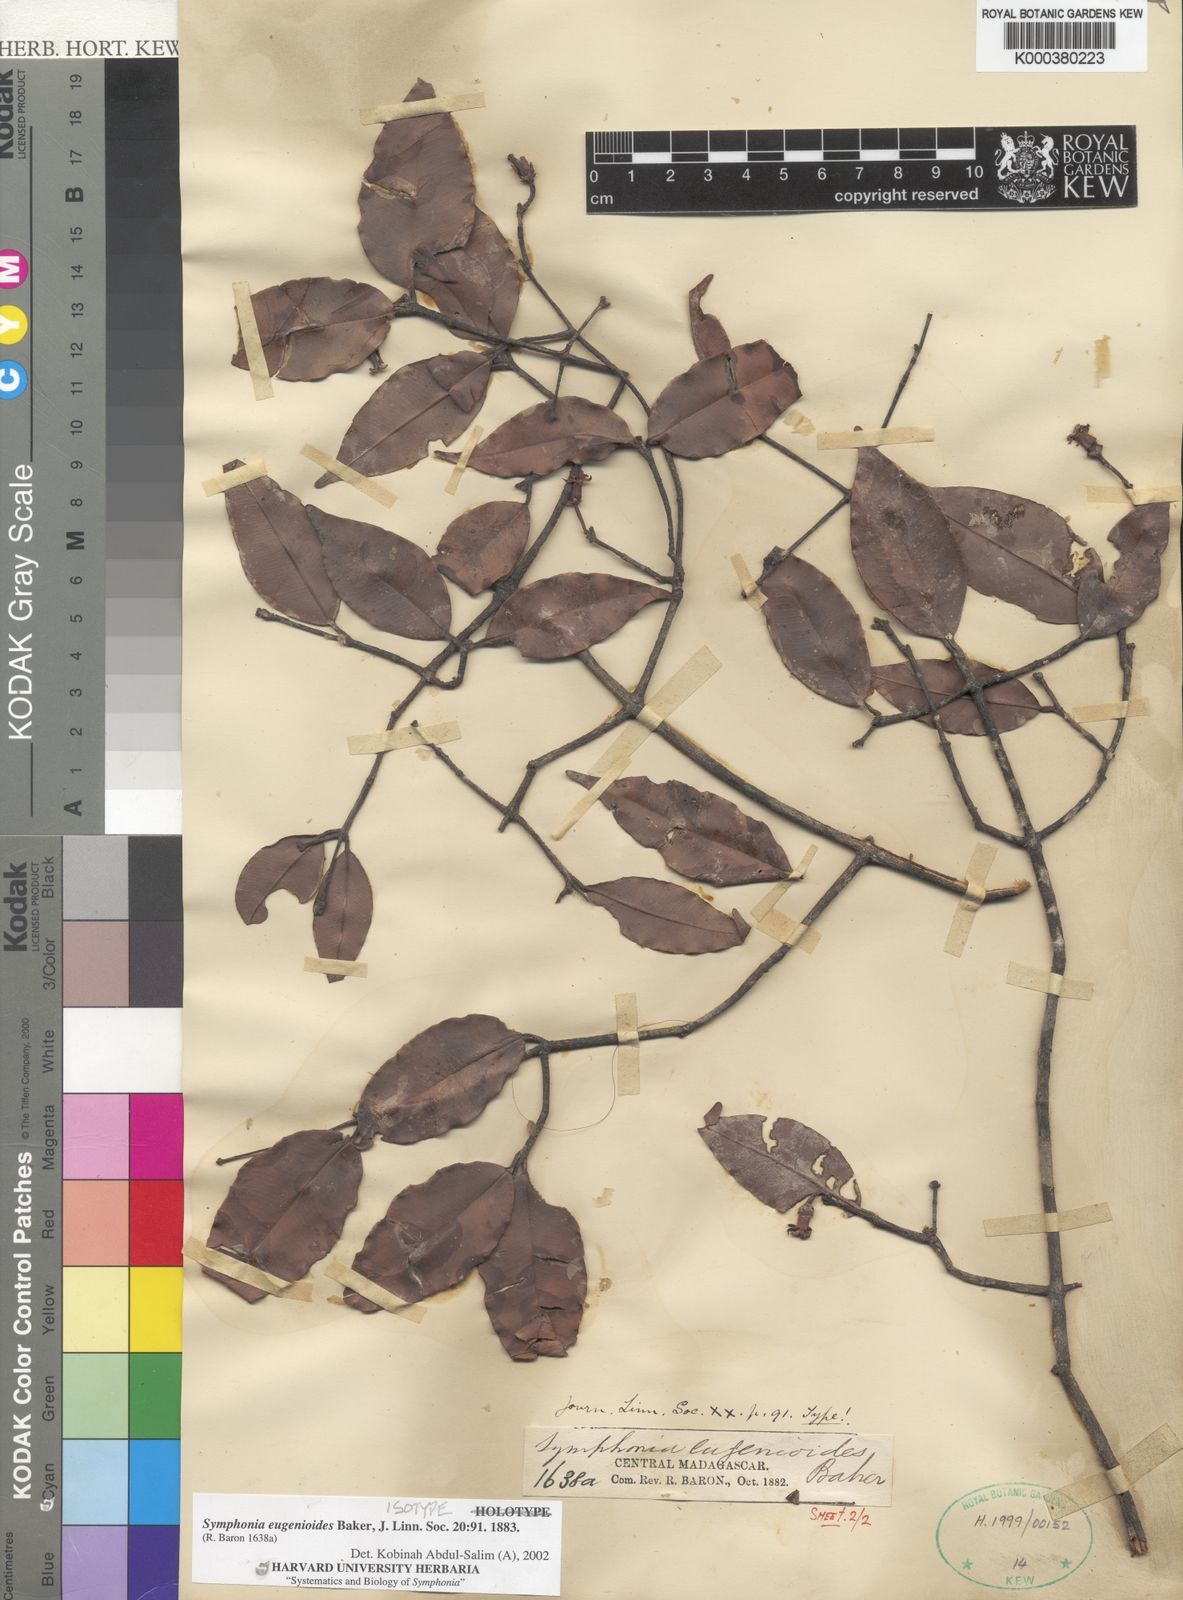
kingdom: Plantae
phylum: Tracheophyta
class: Magnoliopsida
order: Malpighiales
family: Clusiaceae
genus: Symphonia
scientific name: Symphonia eugenioides
